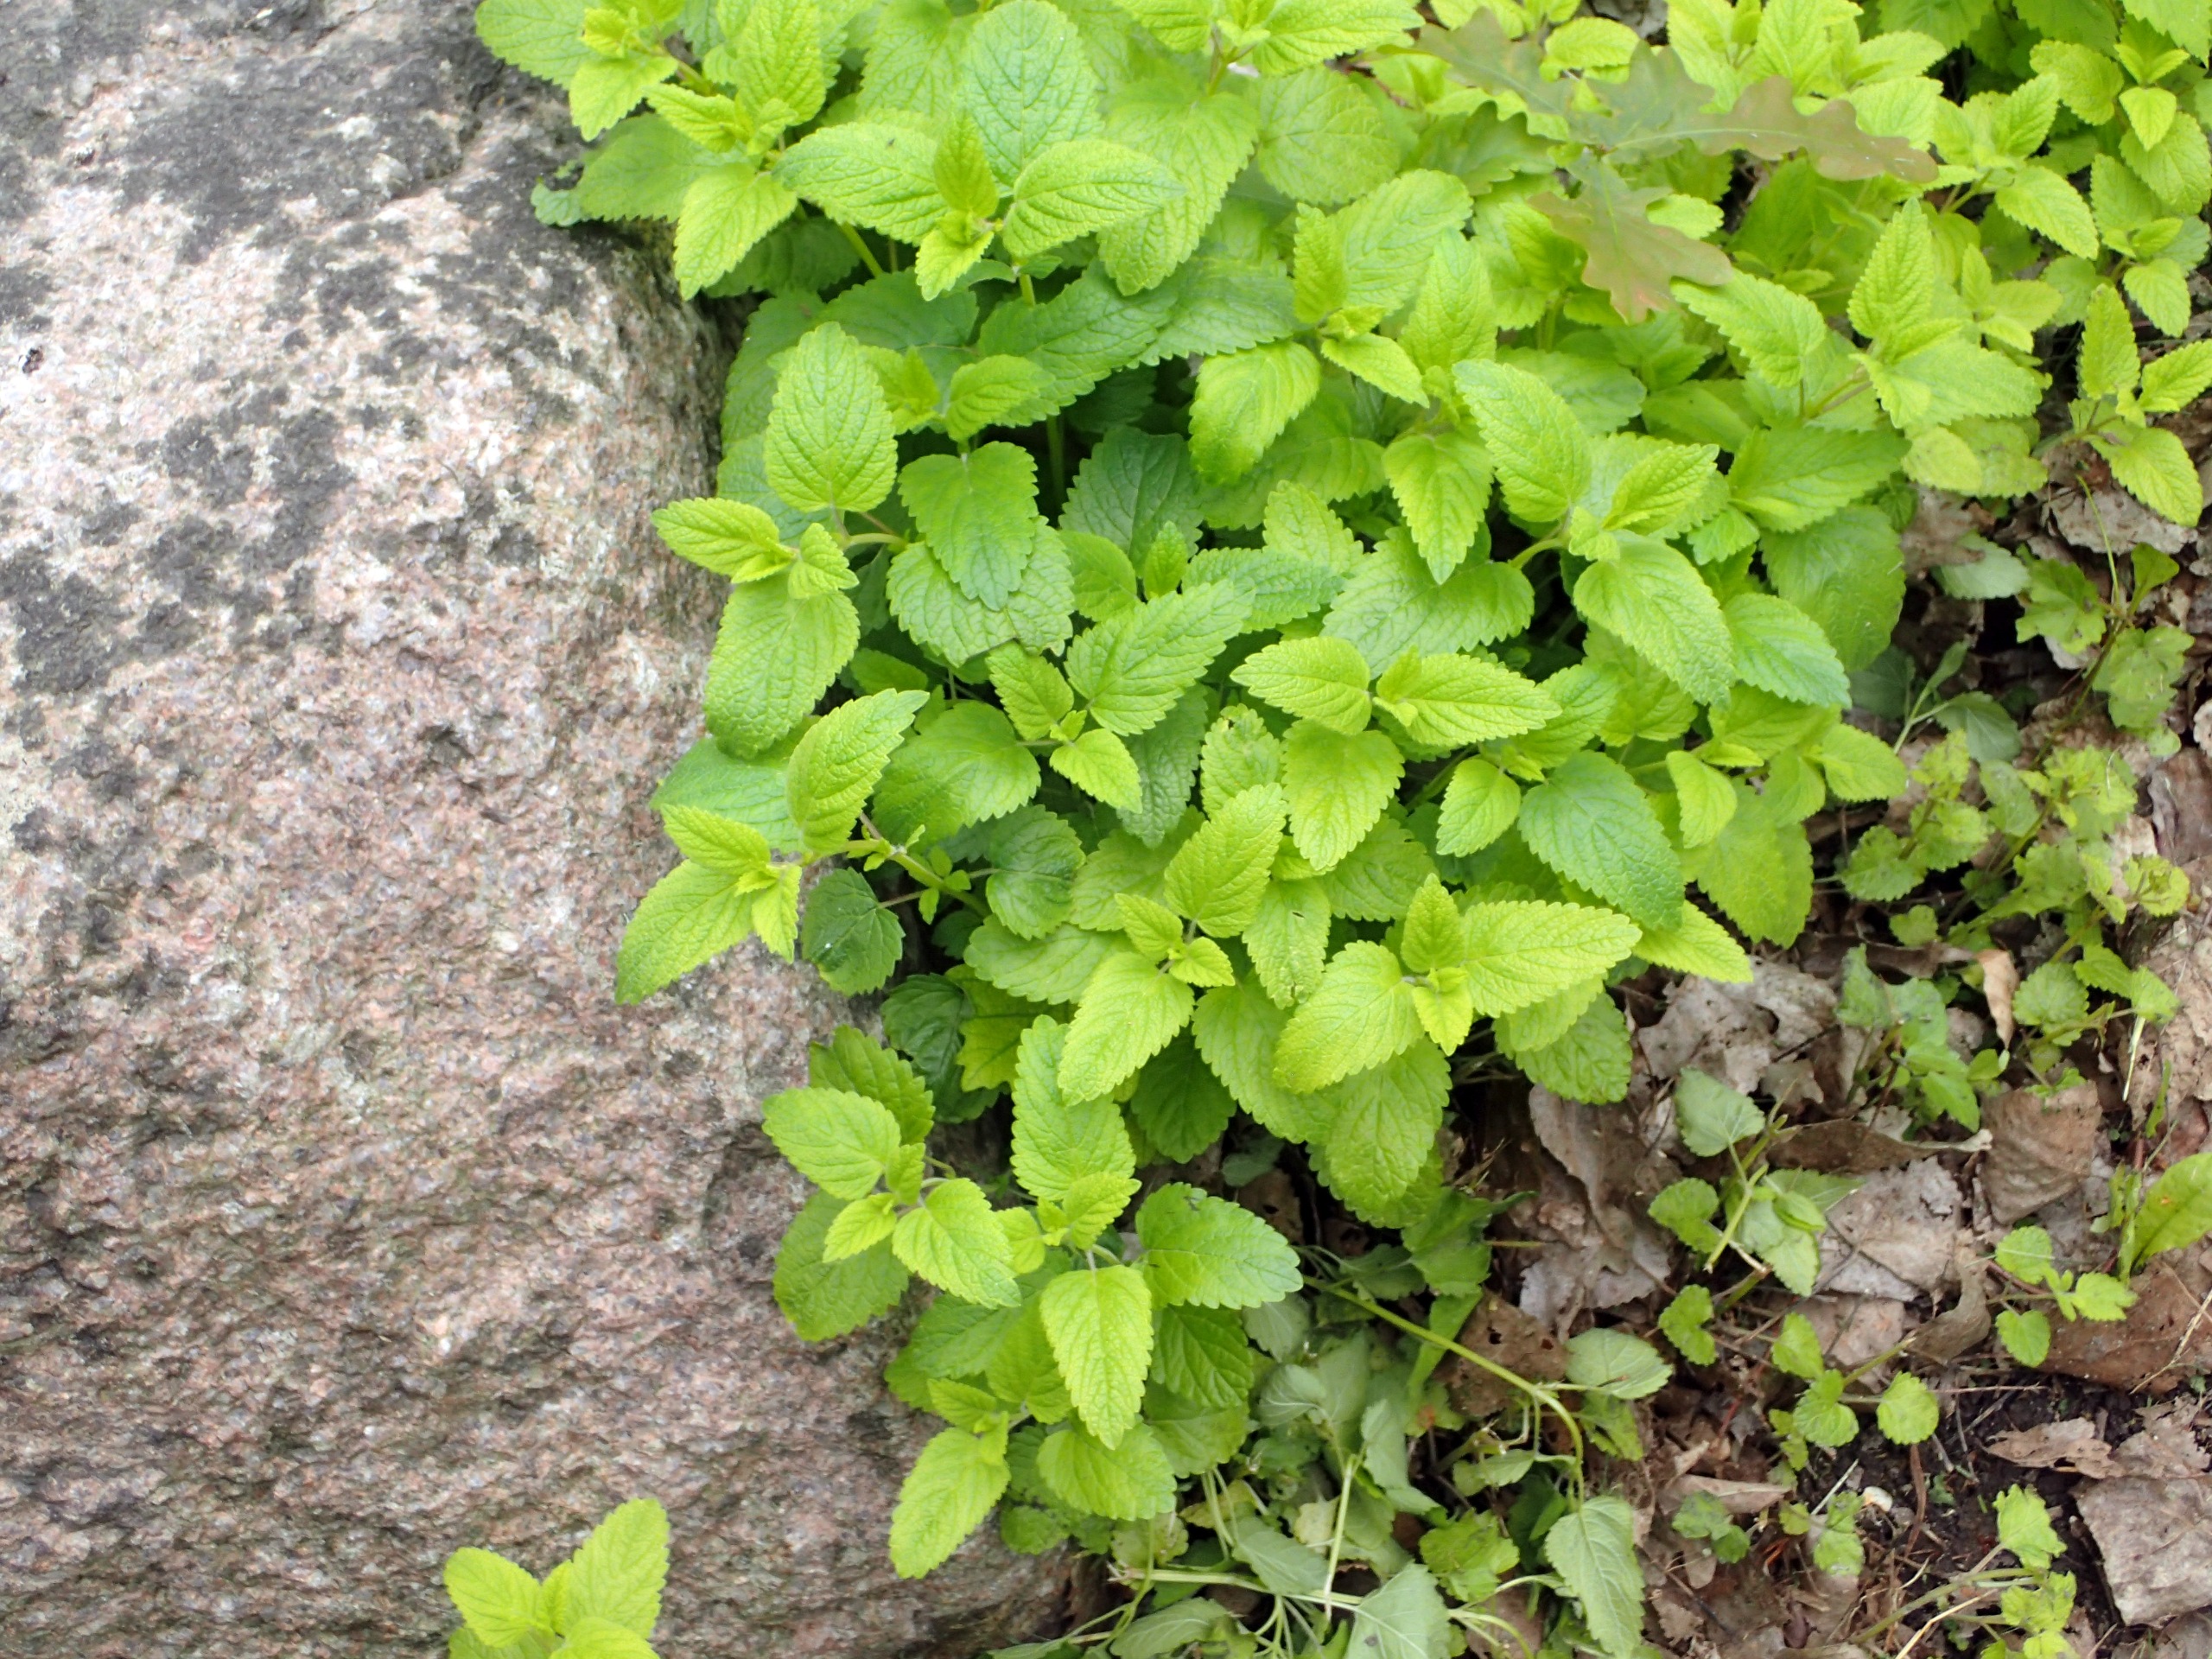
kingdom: Plantae
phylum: Tracheophyta
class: Magnoliopsida
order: Lamiales
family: Lamiaceae
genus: Melissa
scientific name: Melissa officinalis
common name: Citronmelisse
